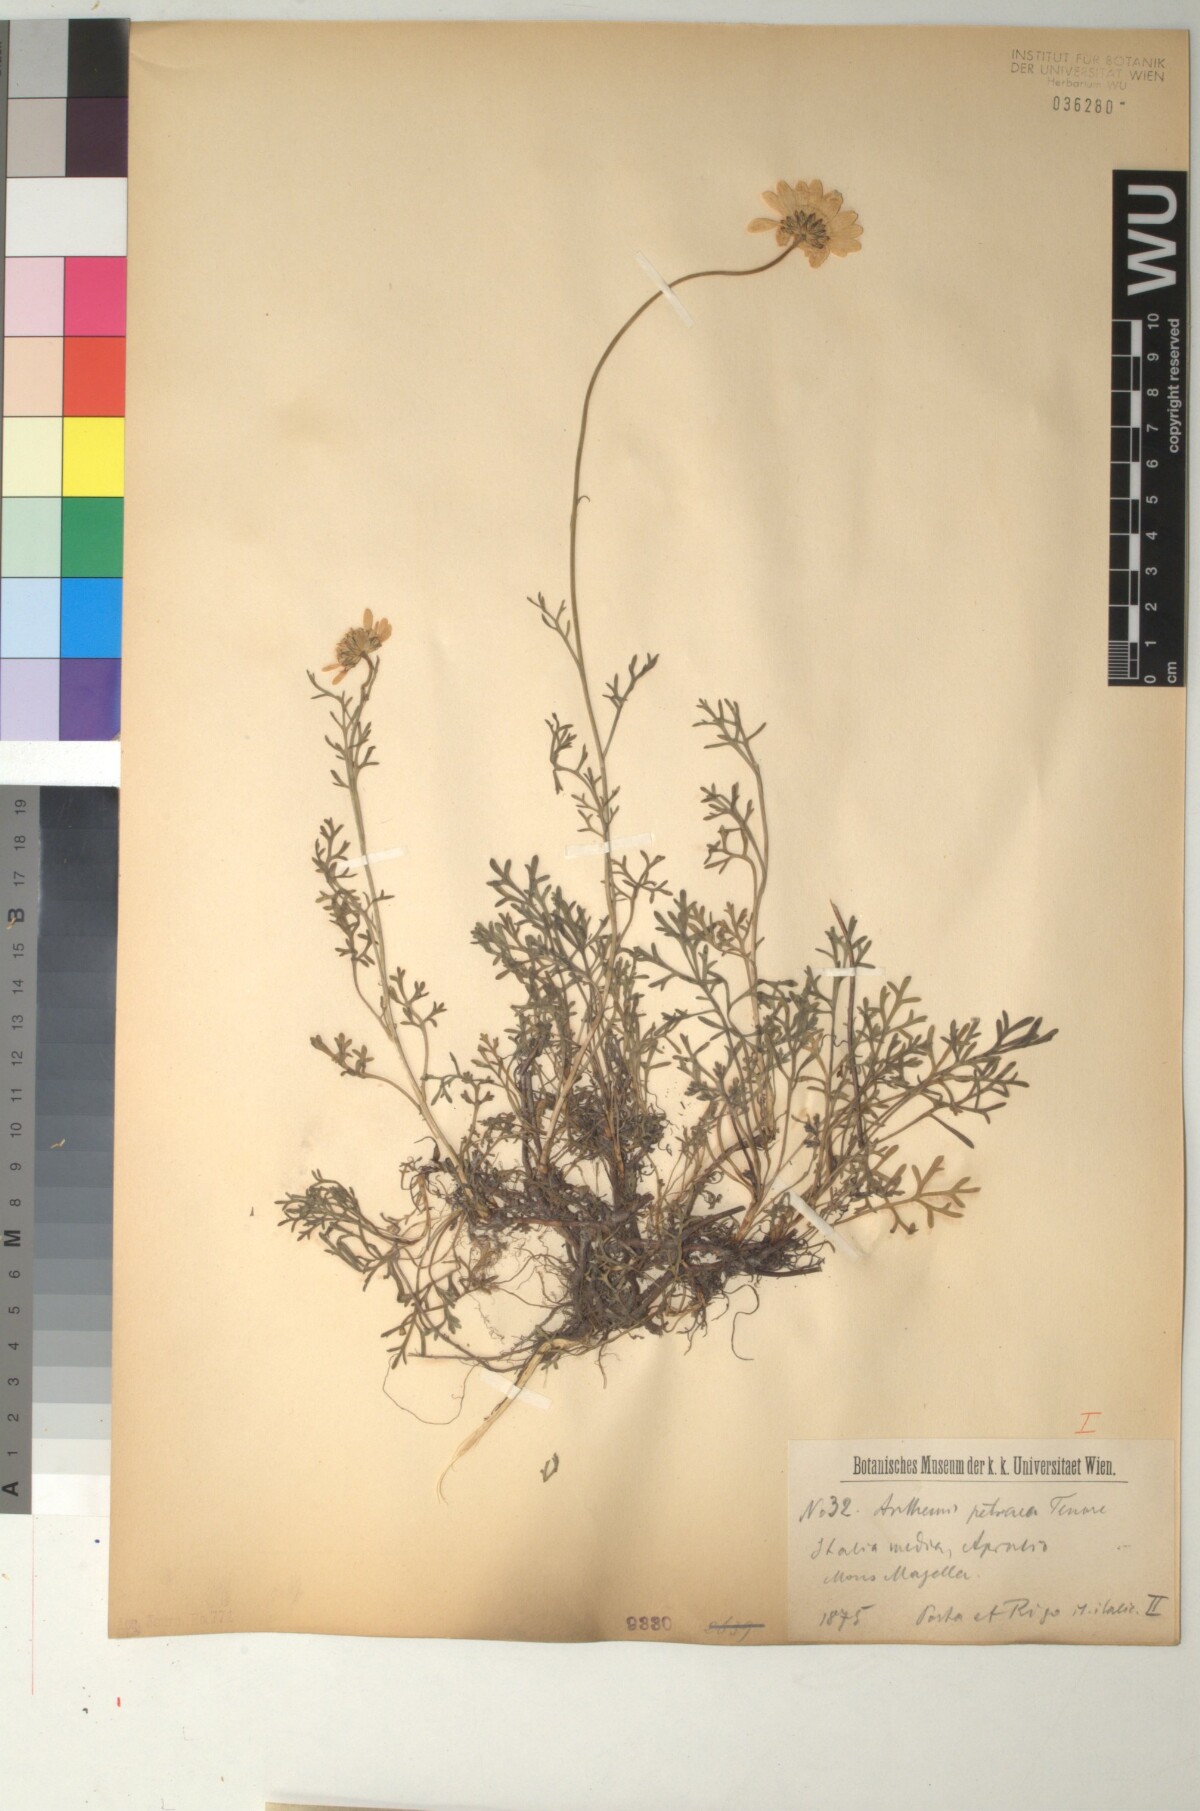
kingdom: Plantae
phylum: Tracheophyta
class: Magnoliopsida
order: Asterales
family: Asteraceae
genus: Anthemis
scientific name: Anthemis cretica
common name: Mountain dog-daisy
